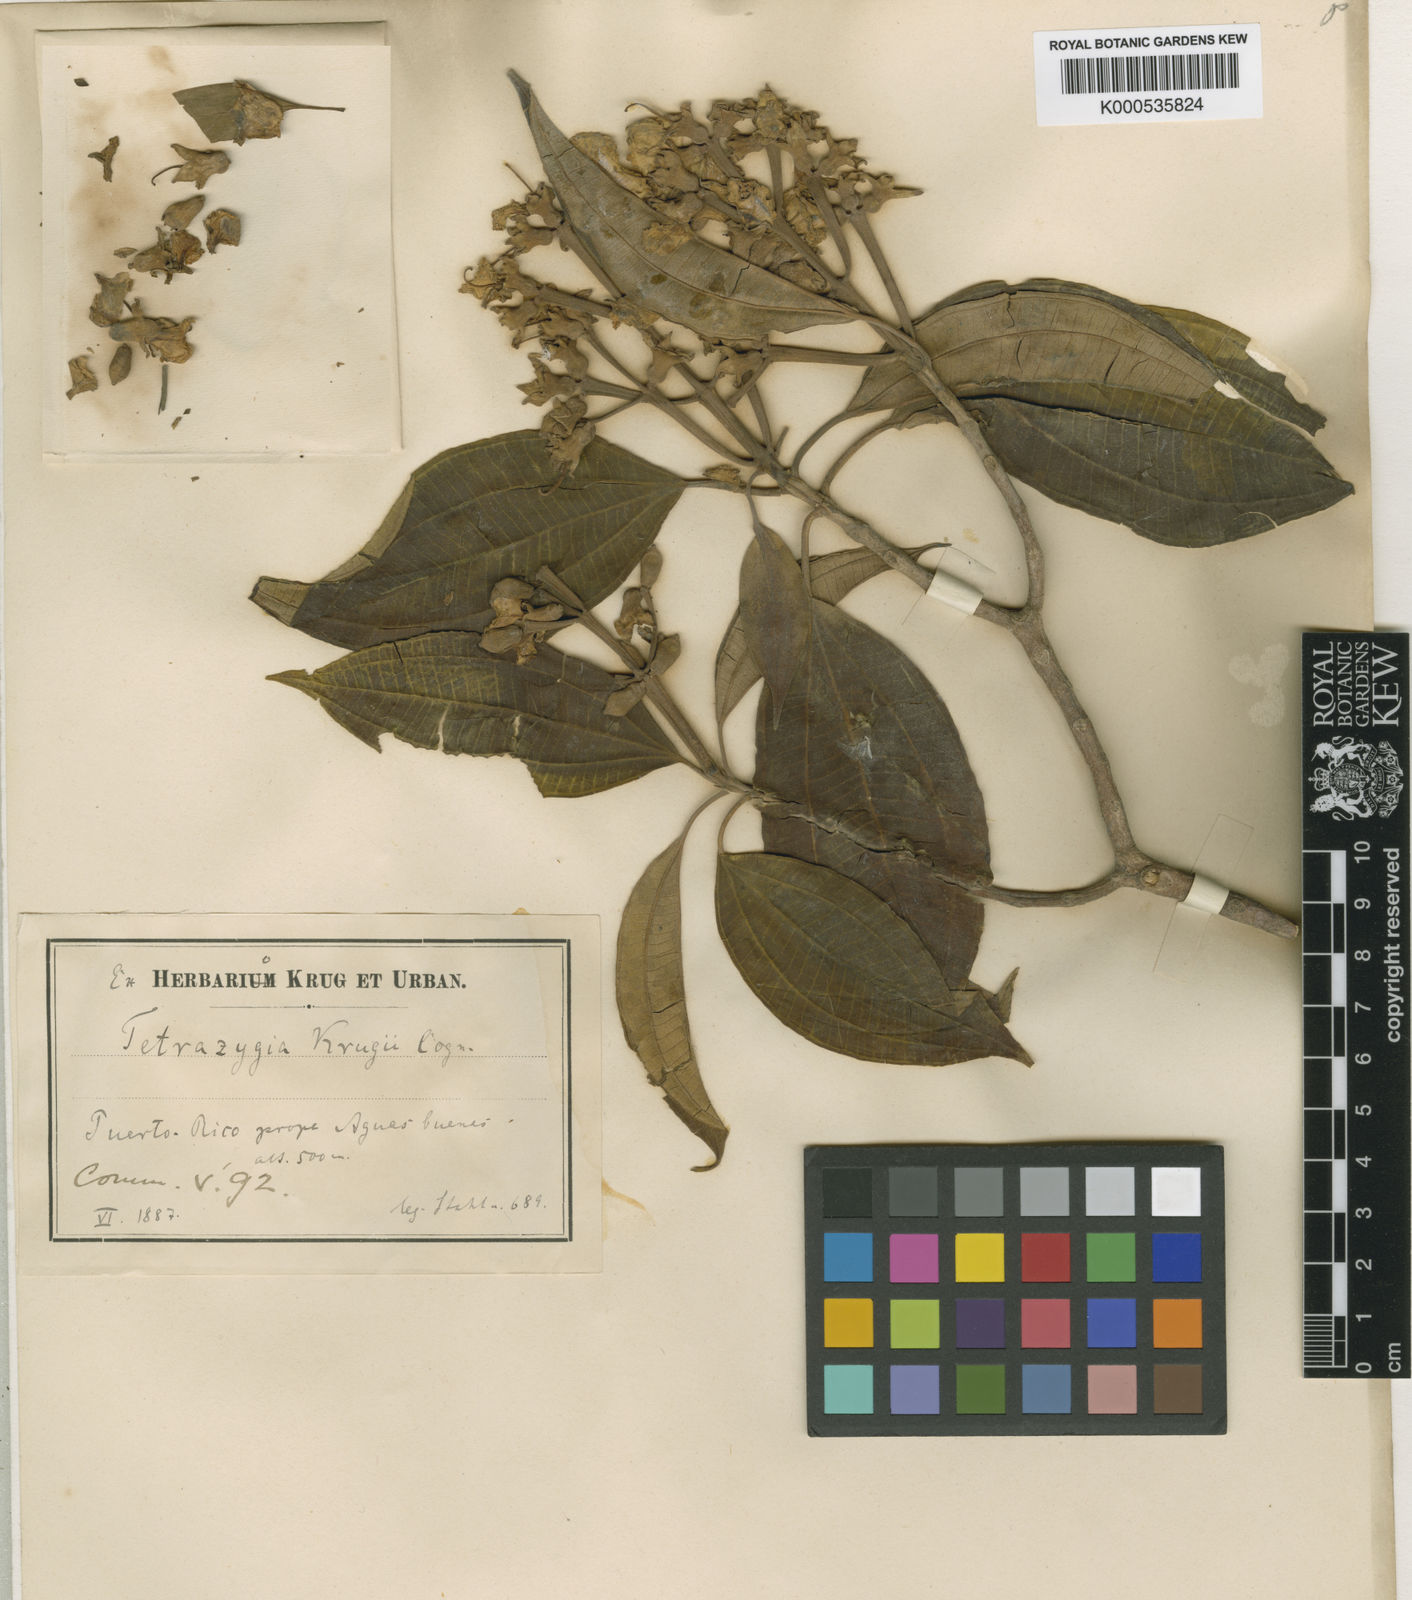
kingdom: Plantae
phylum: Tracheophyta
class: Magnoliopsida
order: Myrtales
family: Melastomataceae
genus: Miconia
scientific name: Miconia biflora
